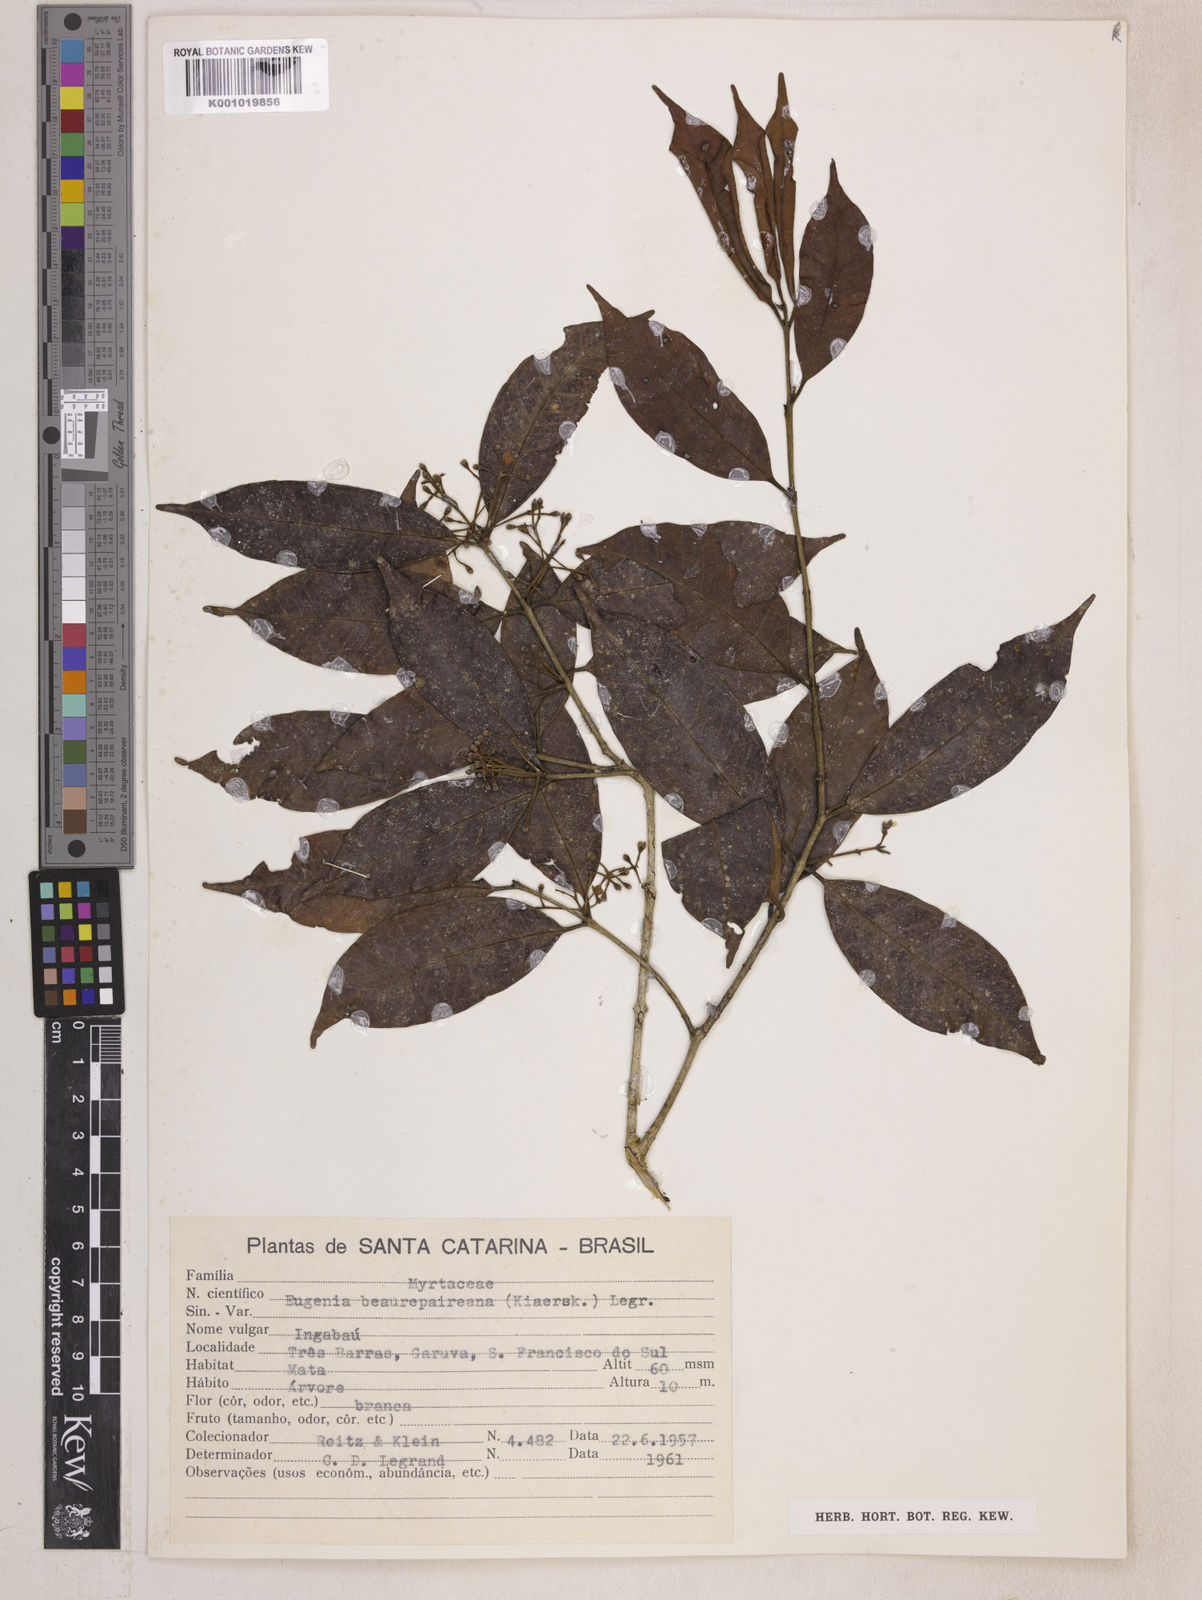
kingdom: Plantae
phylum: Tracheophyta
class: Magnoliopsida
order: Myrtales
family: Myrtaceae
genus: Eugenia
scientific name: Eugenia ternatifolia
